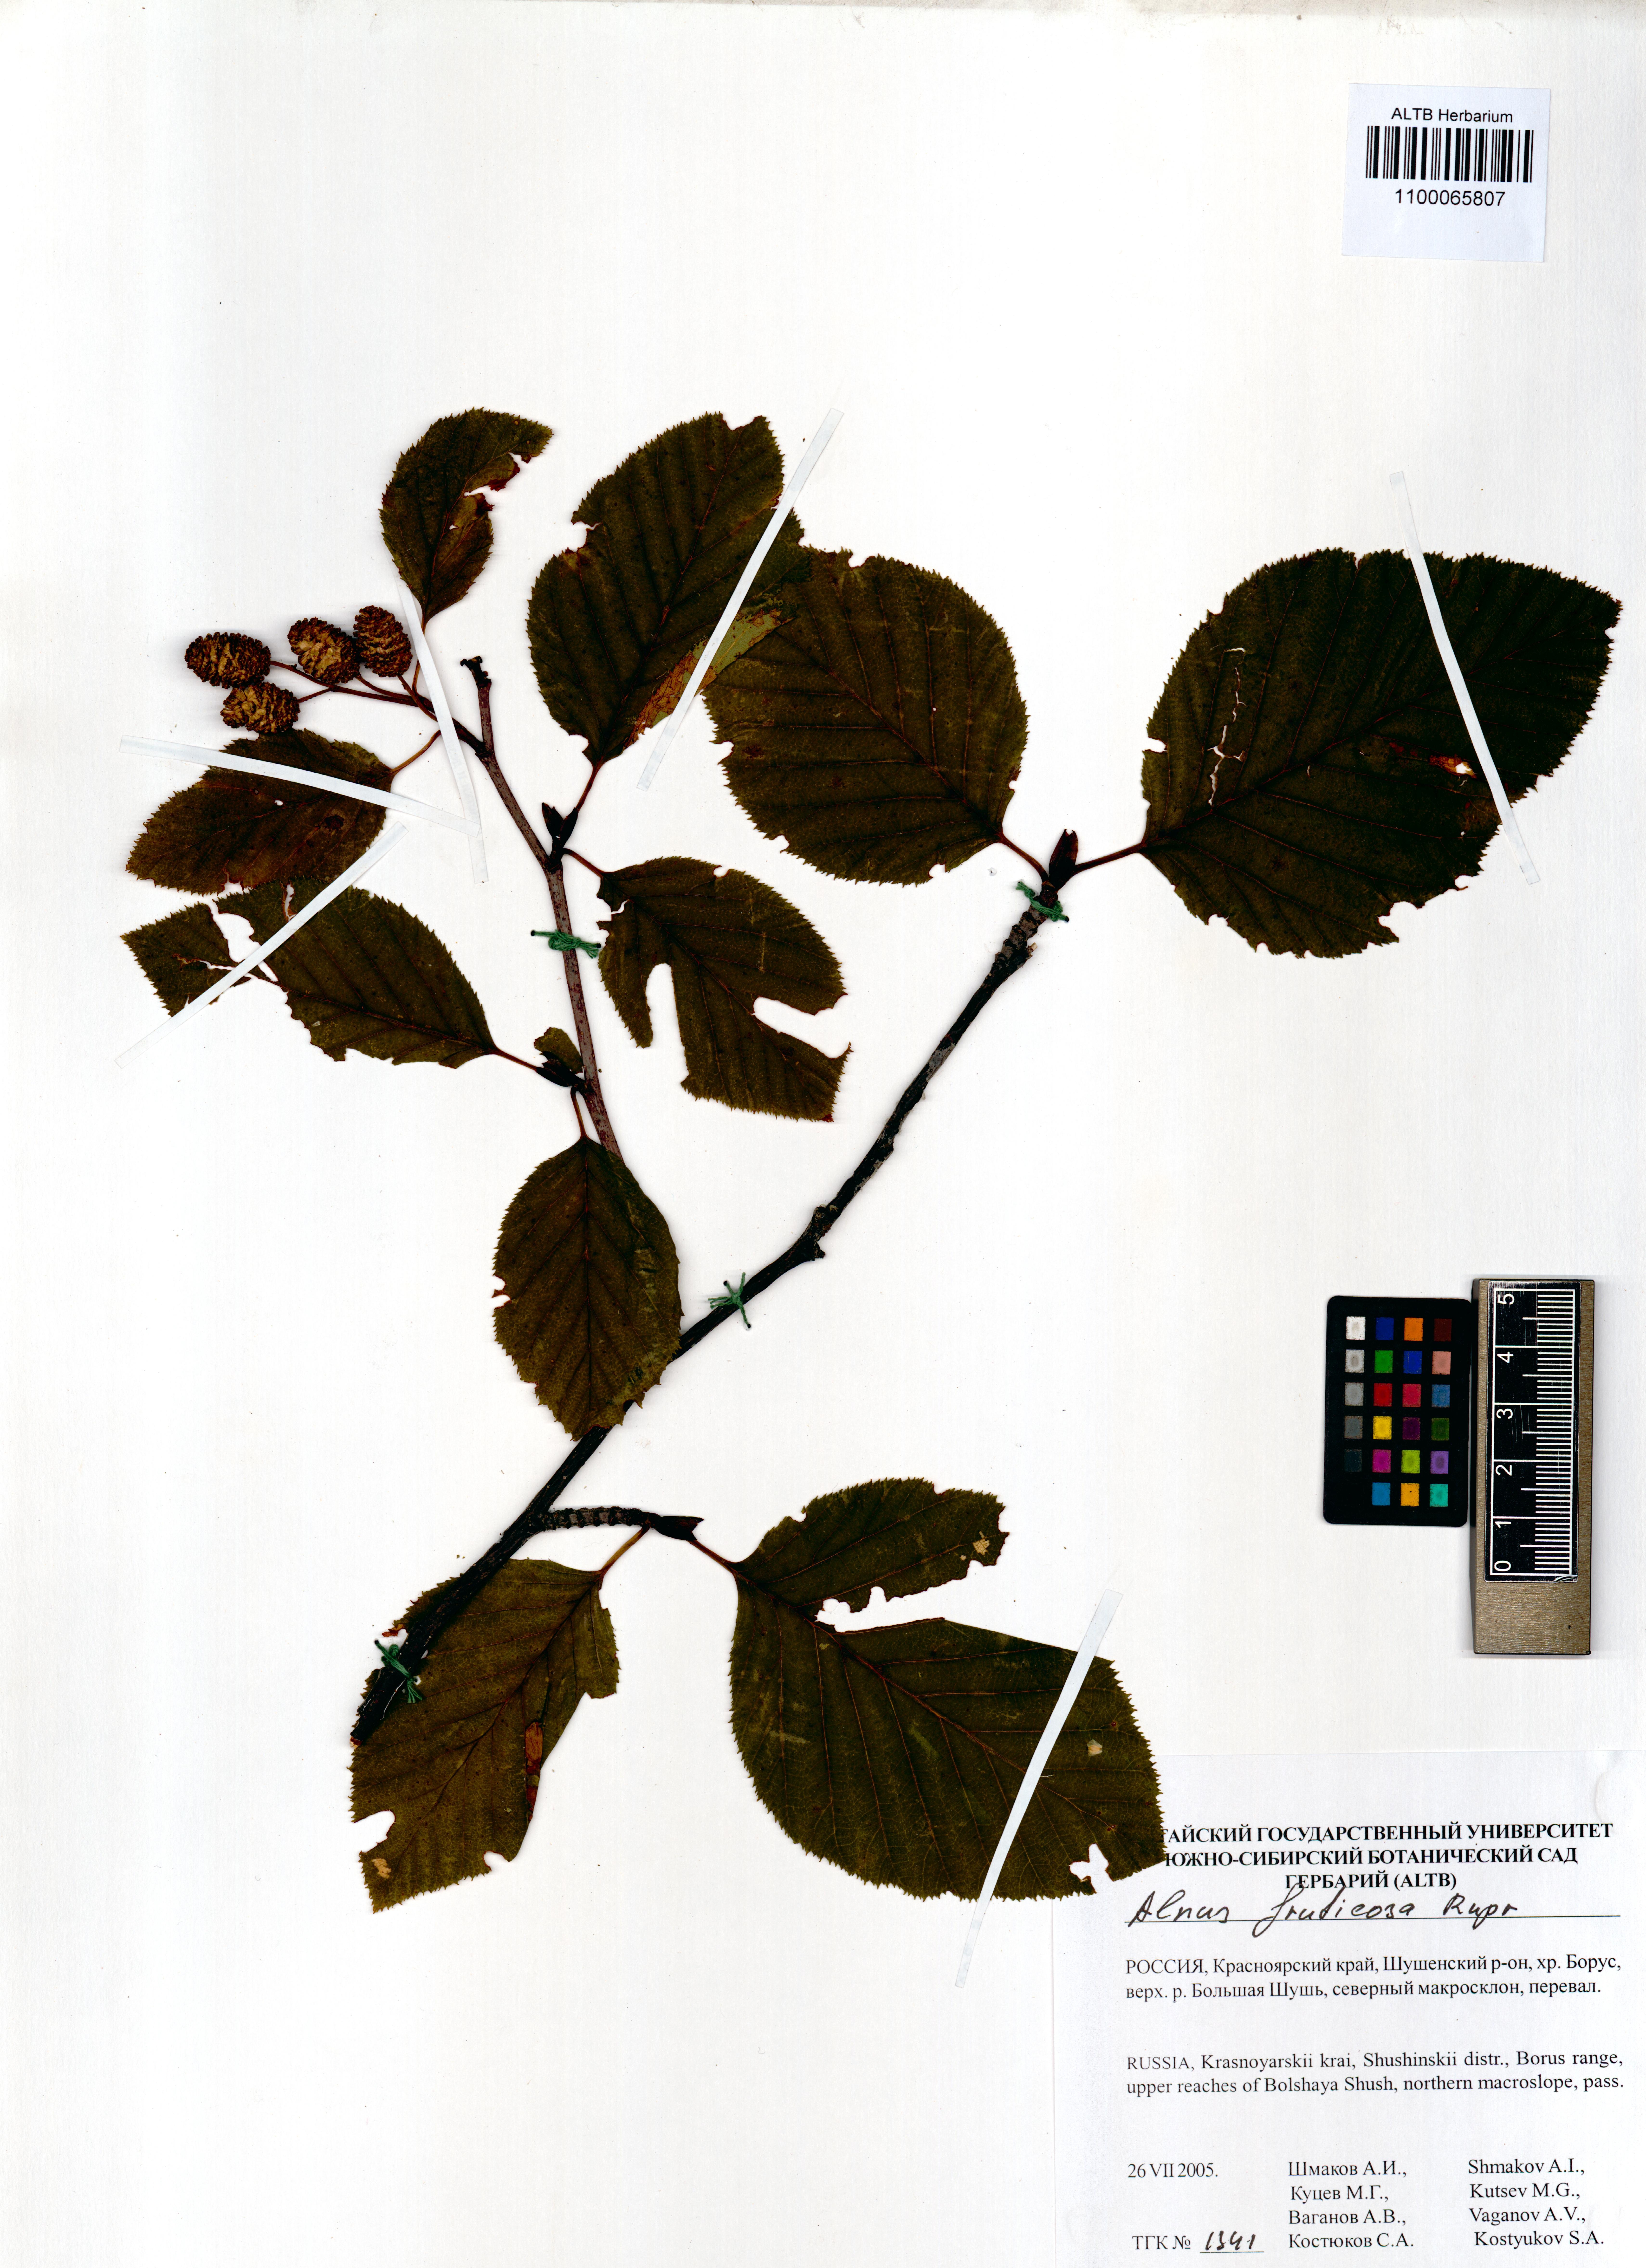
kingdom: Plantae
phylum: Tracheophyta
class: Magnoliopsida
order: Fagales
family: Betulaceae
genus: Alnus
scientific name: Alnus alnobetula
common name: Green alder
